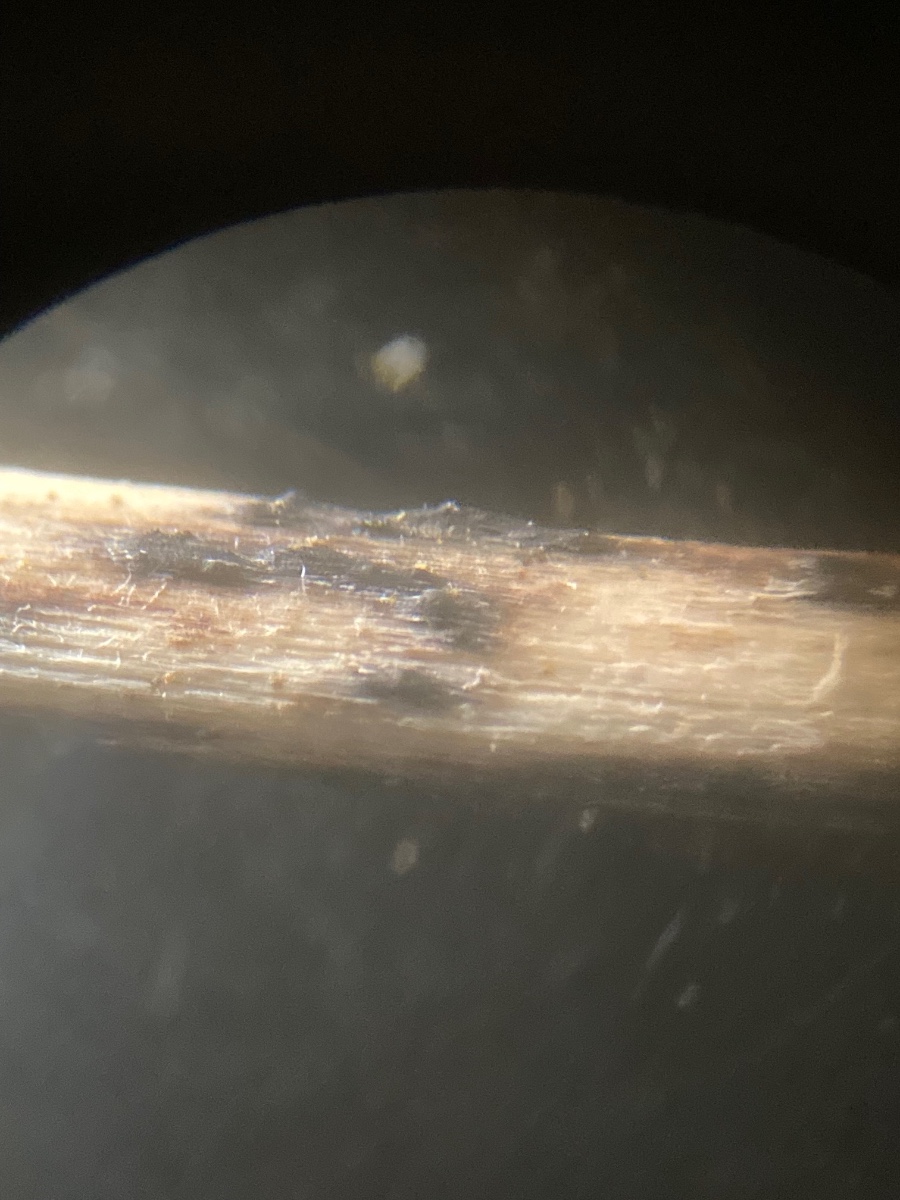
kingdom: Fungi
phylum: Ascomycota
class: Sordariomycetes
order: Diaporthales
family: Diaporthaceae
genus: Diaporthe
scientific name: Diaporthe dulcamarae
